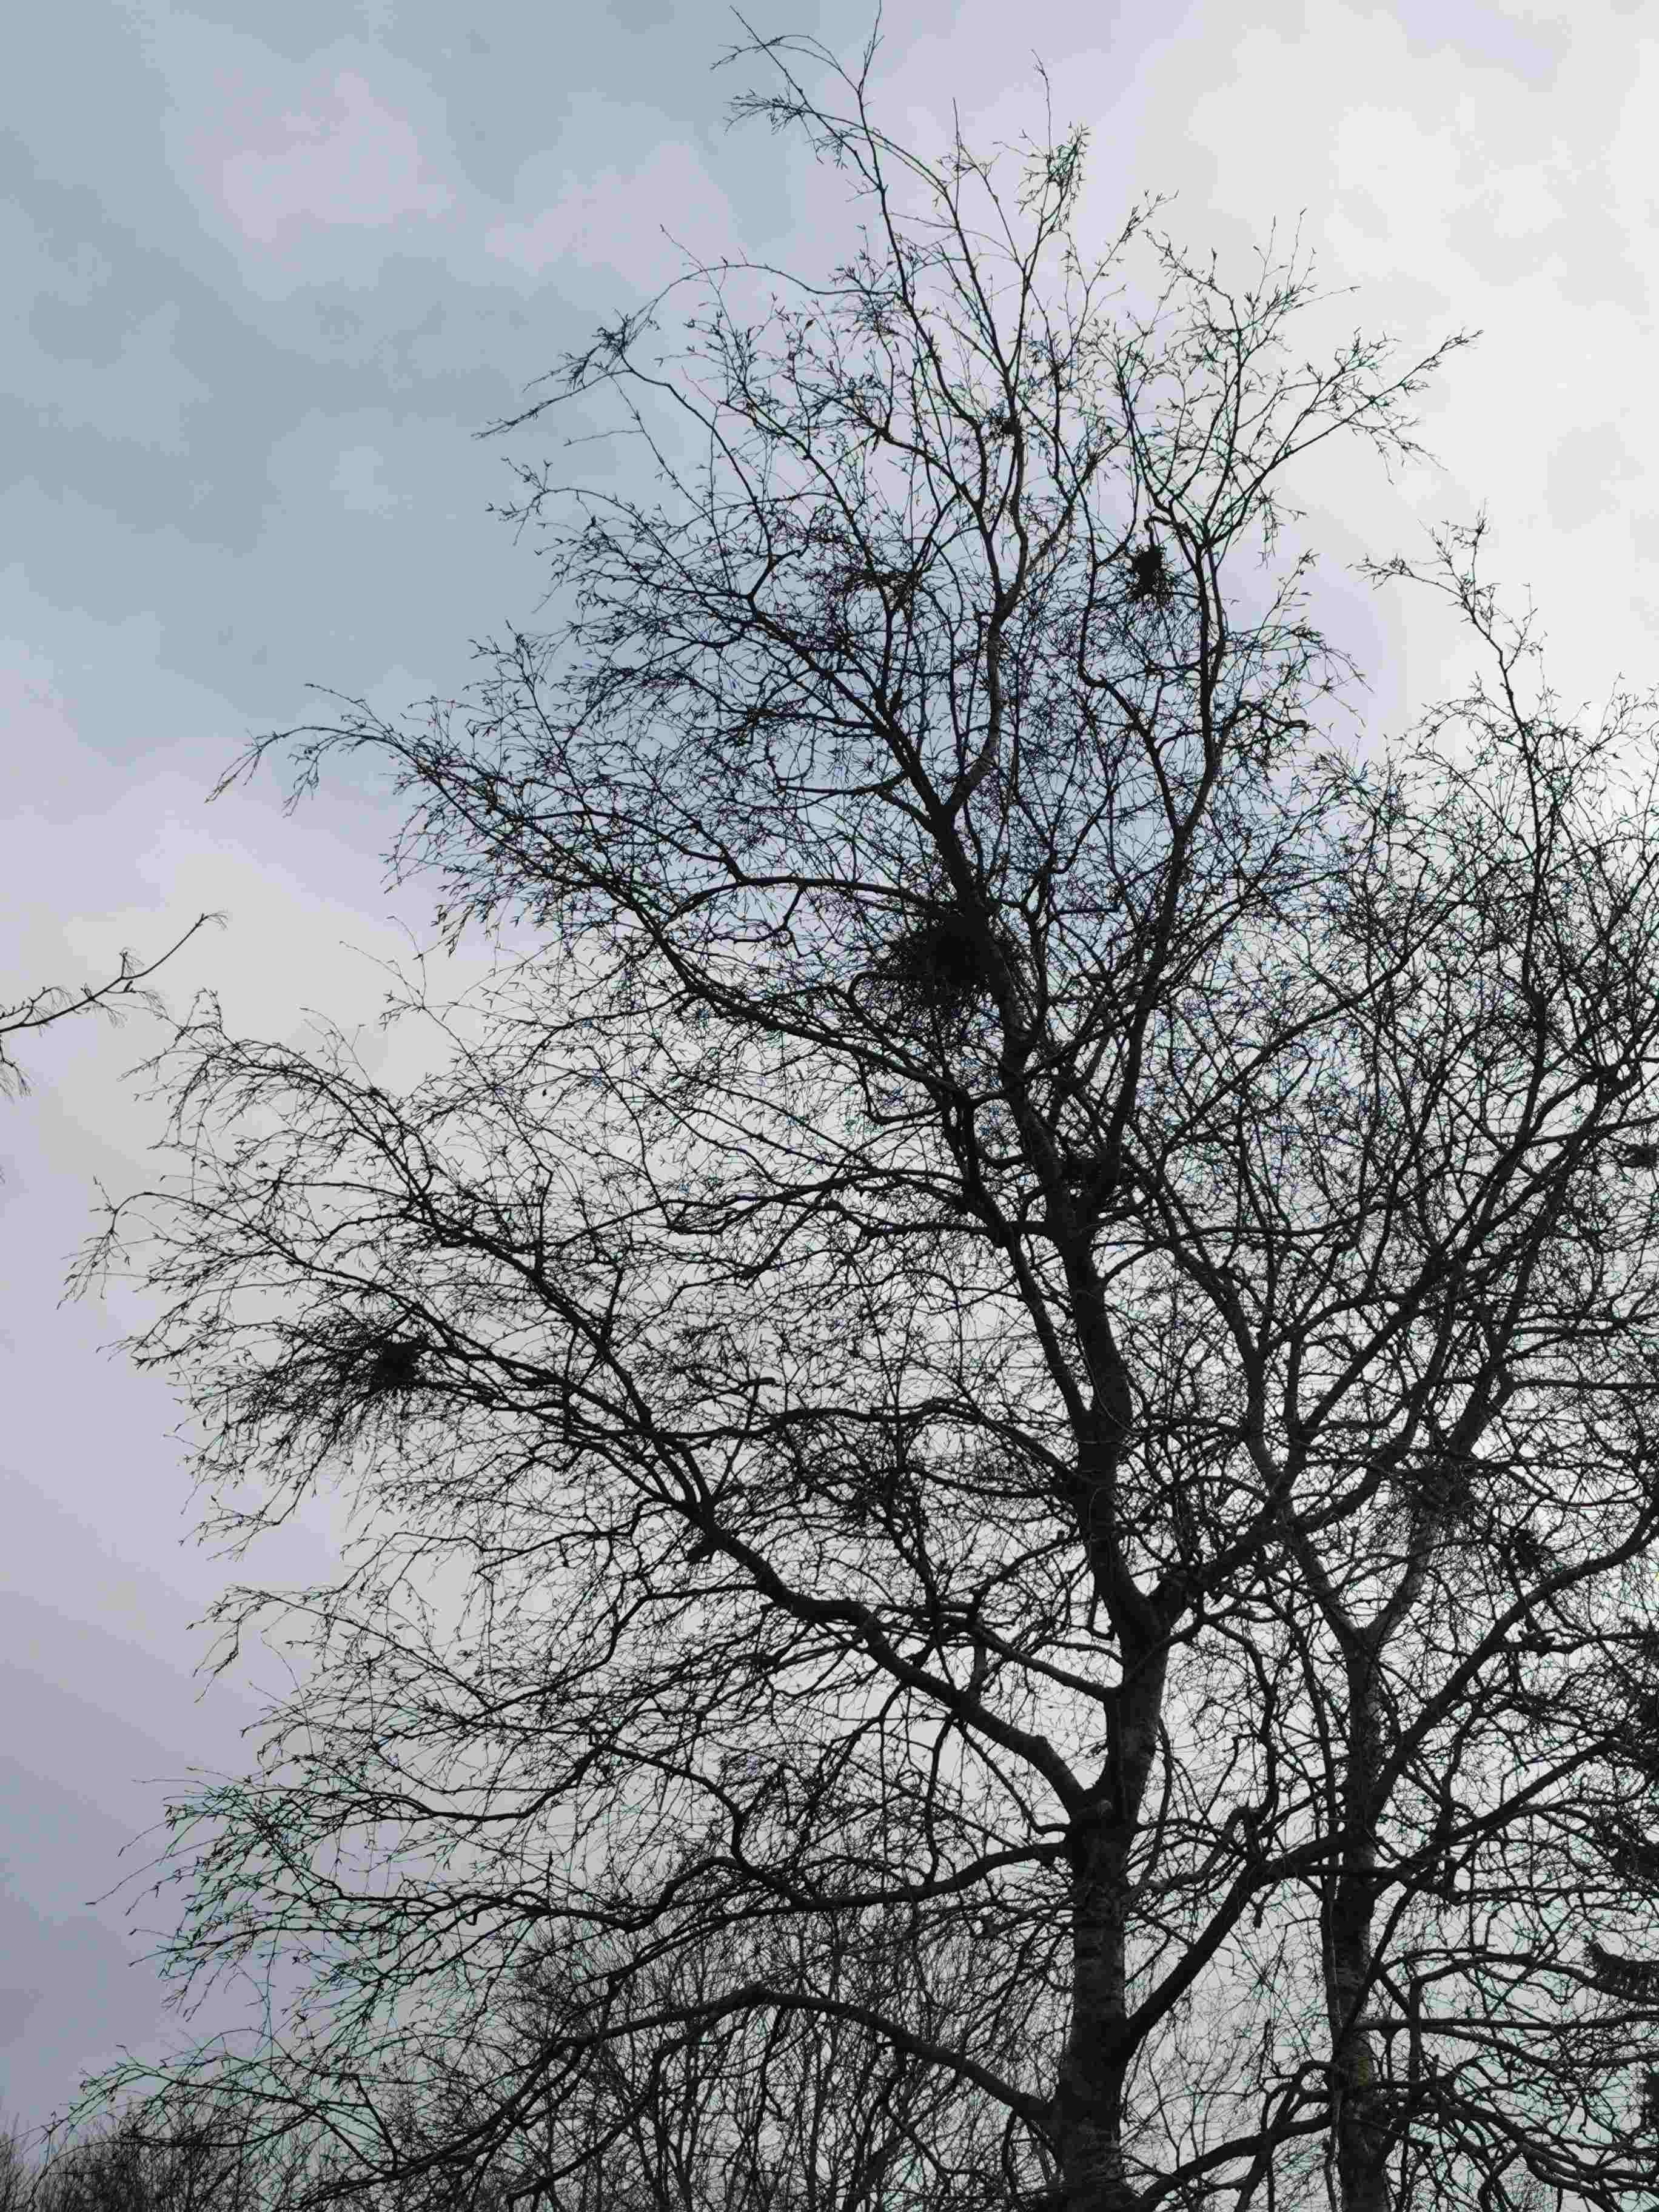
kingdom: Fungi
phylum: Ascomycota
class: Taphrinomycetes
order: Taphrinales
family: Taphrinaceae
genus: Taphrina
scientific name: Taphrina betulina
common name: hekse-sækdug
